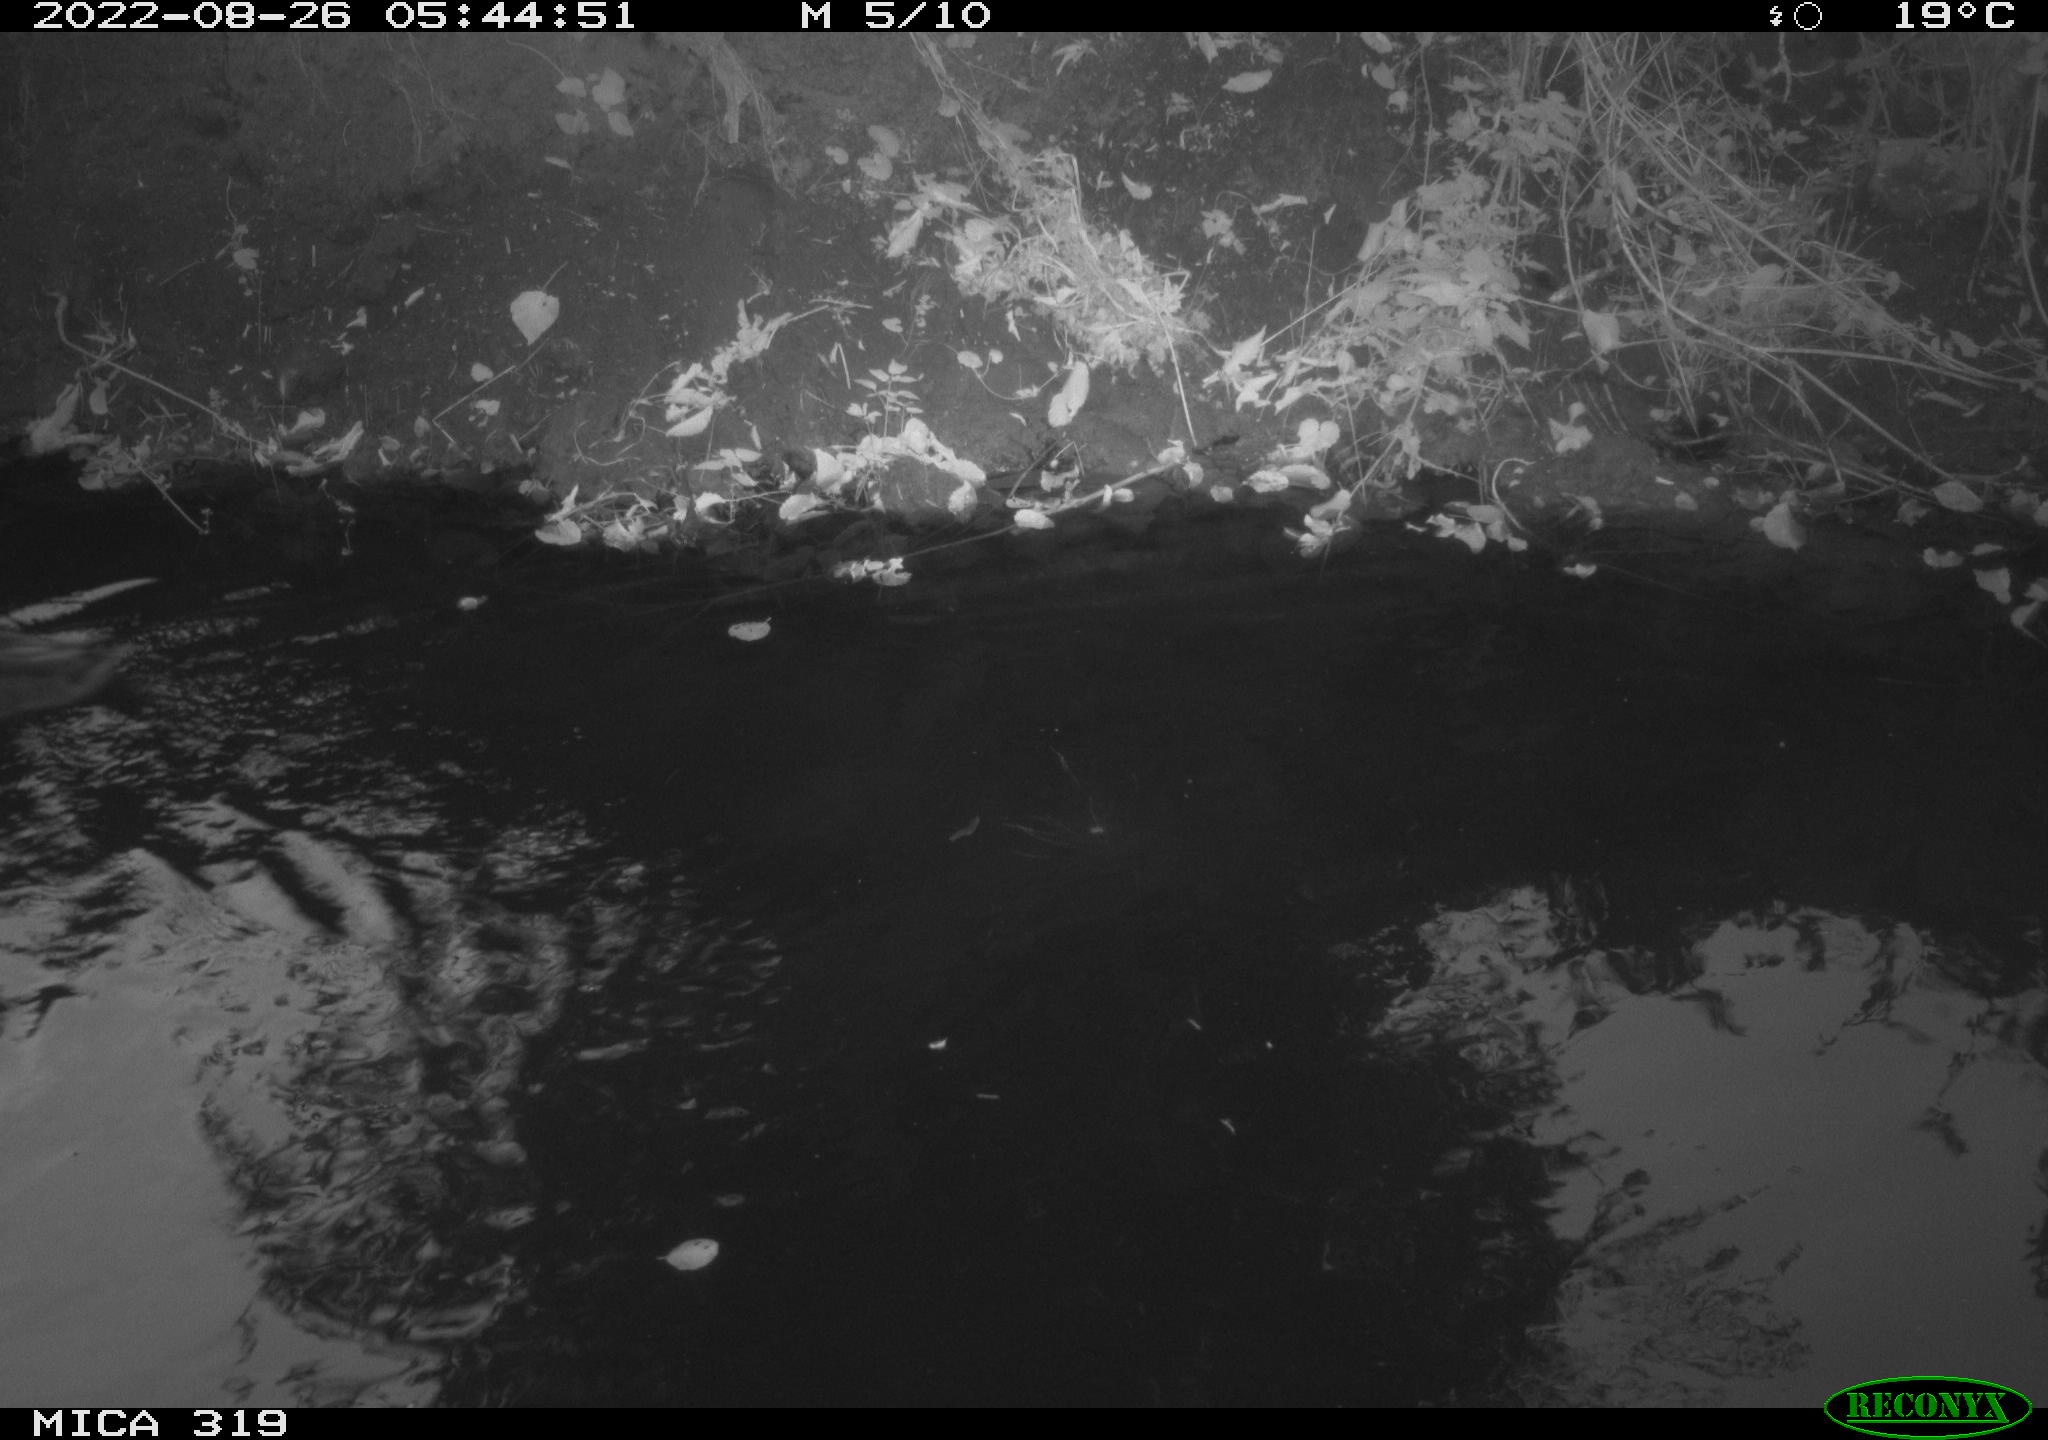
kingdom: Animalia
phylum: Chordata
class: Aves
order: Anseriformes
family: Anatidae
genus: Anas
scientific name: Anas
